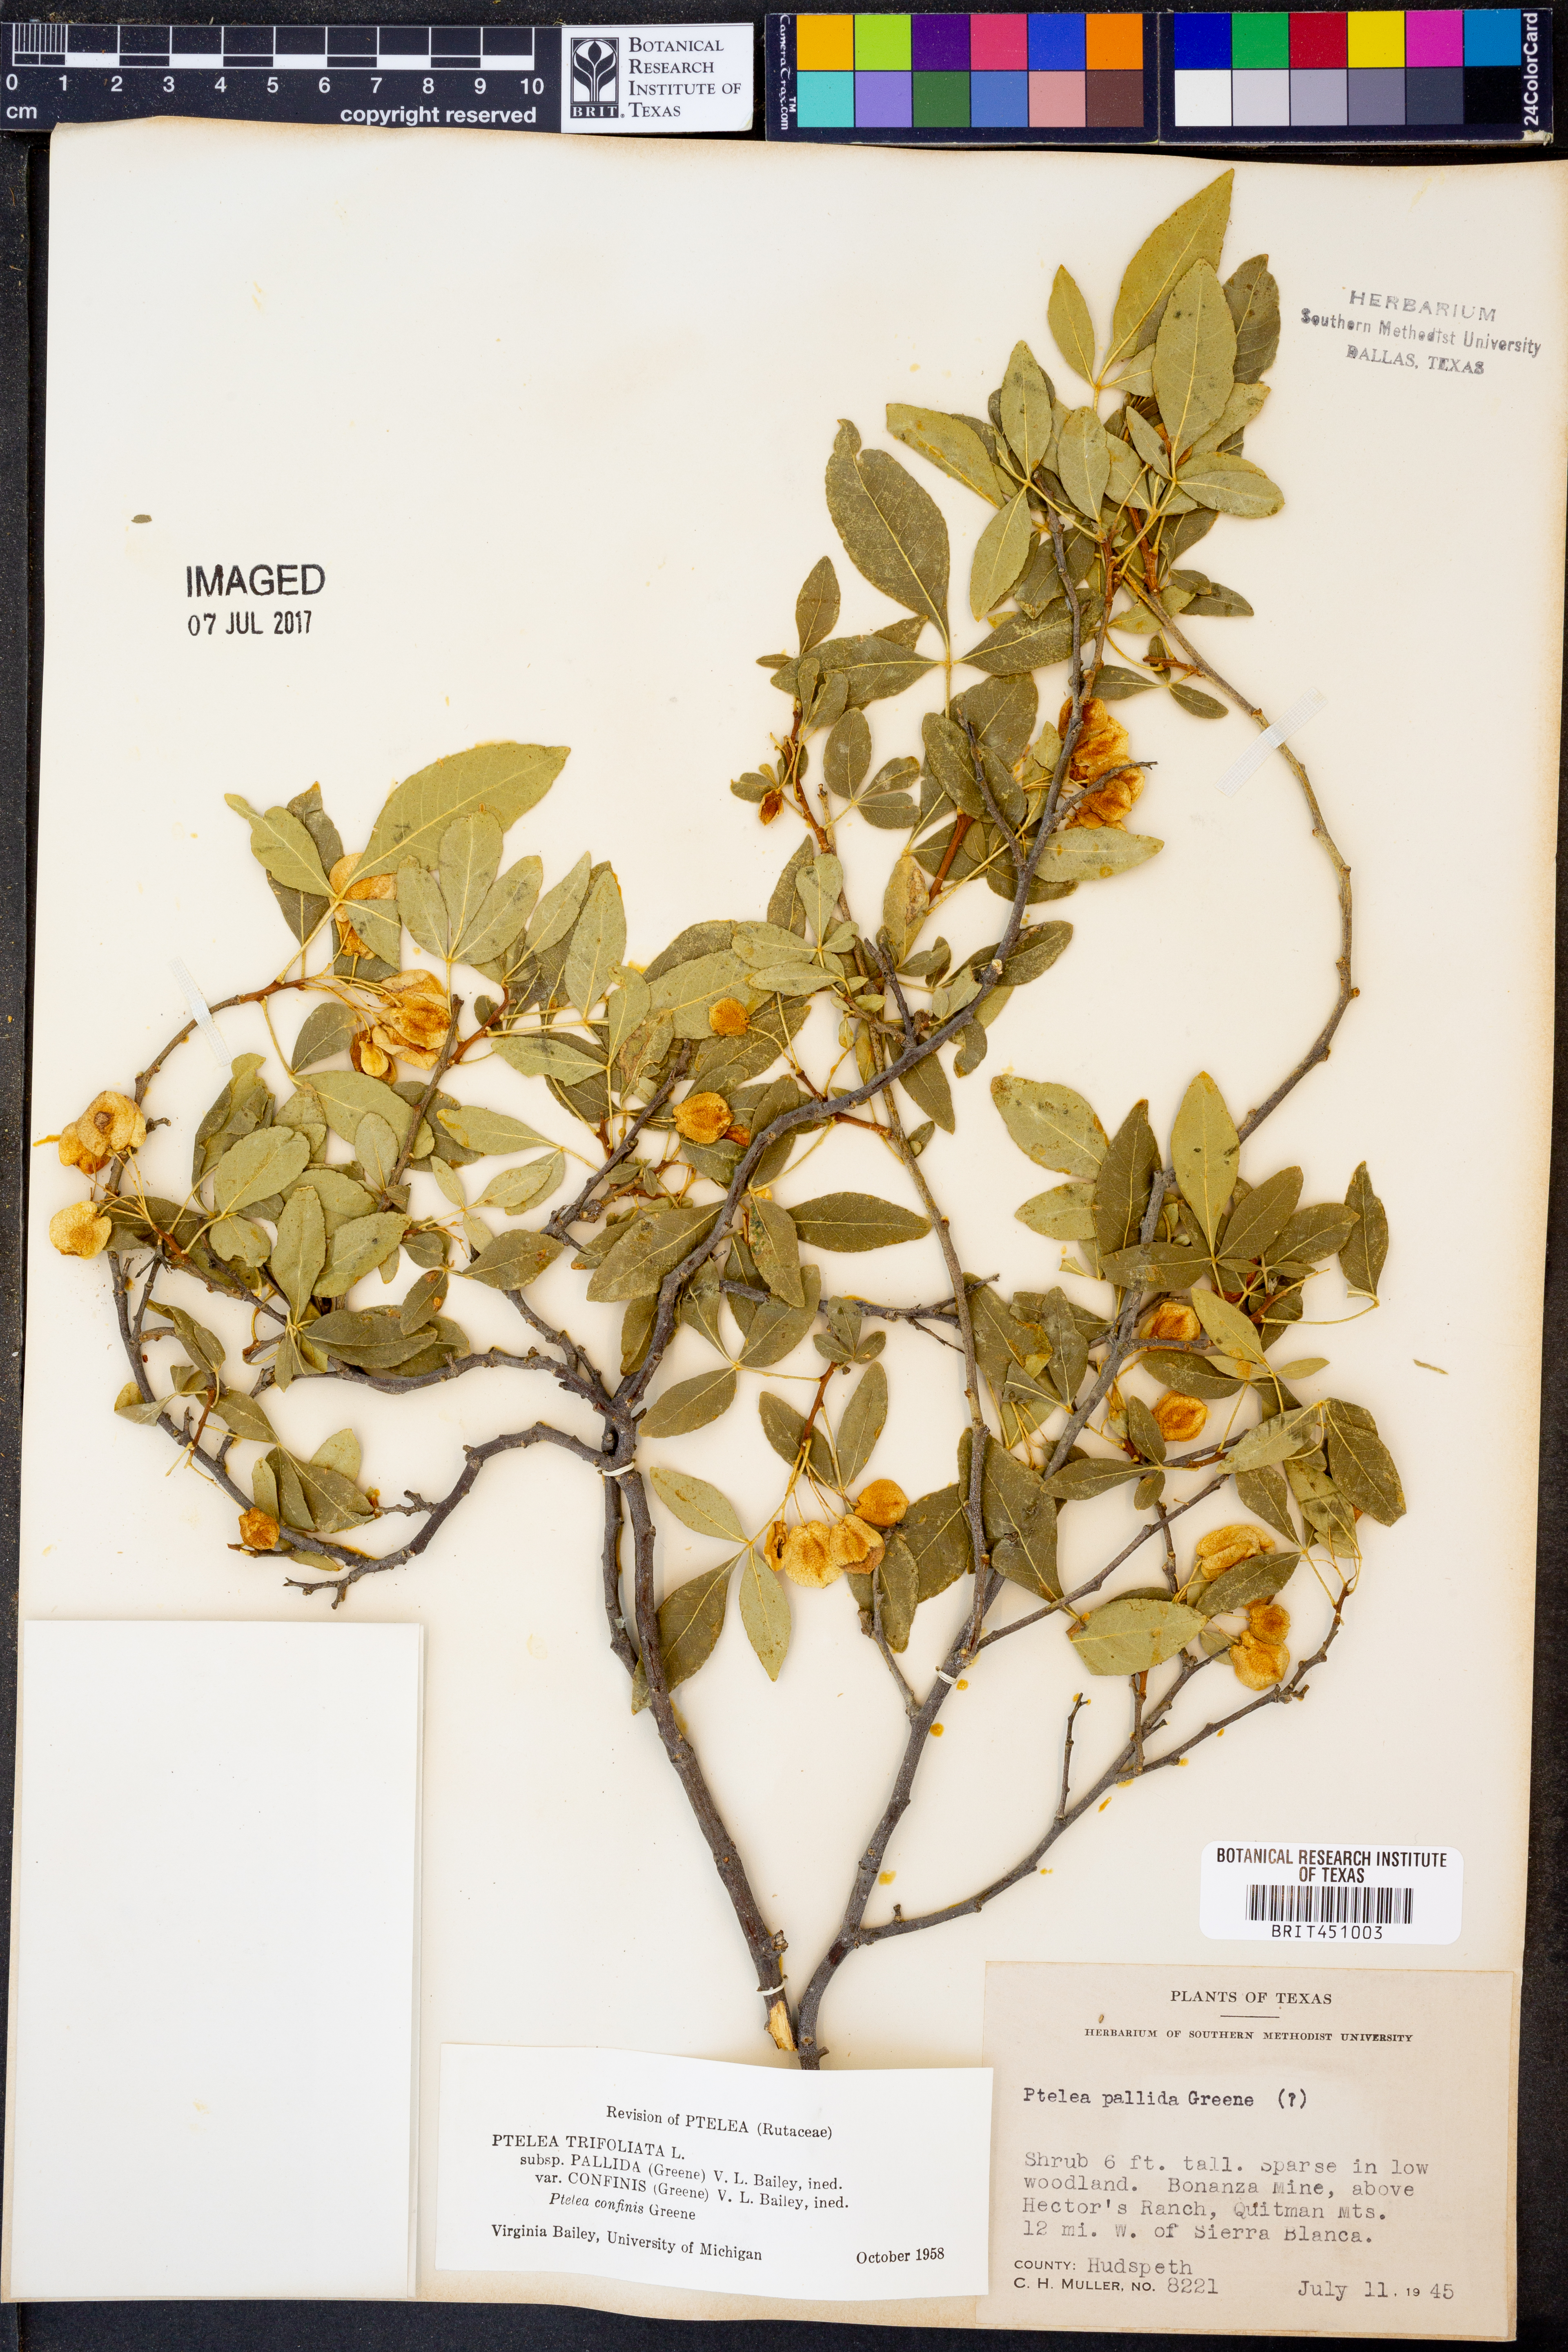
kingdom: Plantae
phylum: Tracheophyta
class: Magnoliopsida
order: Sapindales
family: Rutaceae
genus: Ptelea
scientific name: Ptelea trifoliata
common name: Common hop-tree
